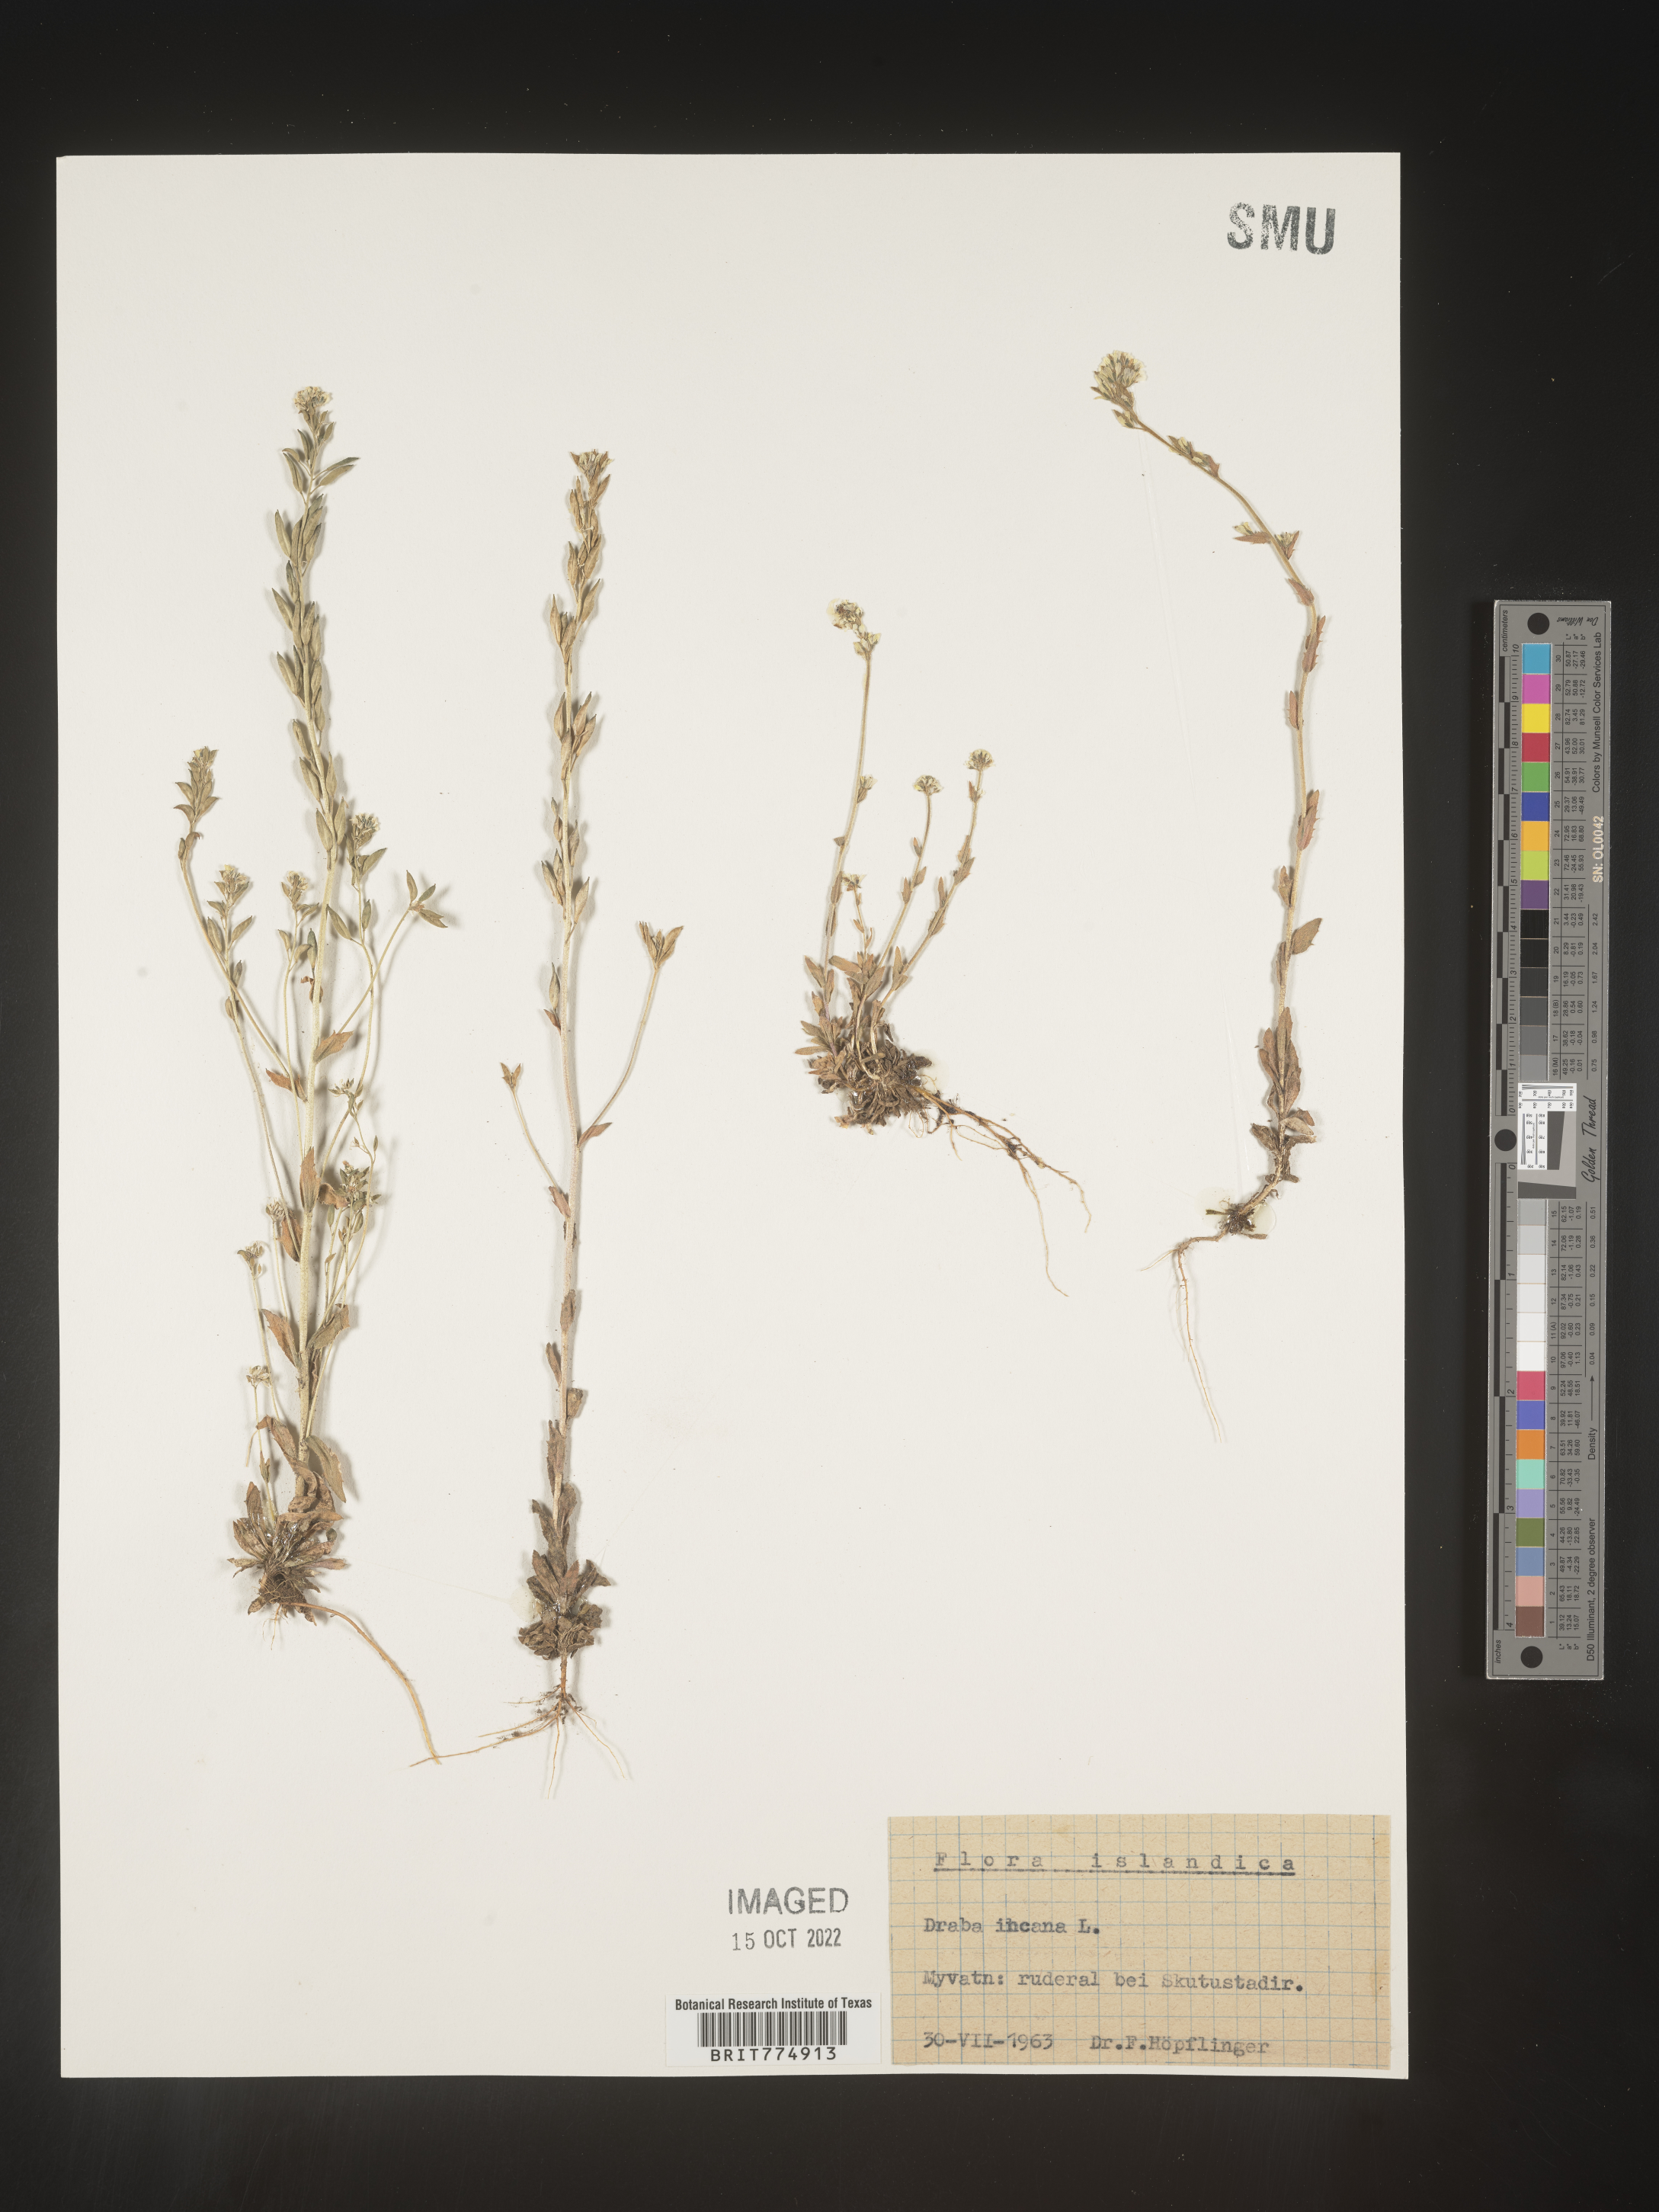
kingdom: Plantae
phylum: Tracheophyta
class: Magnoliopsida
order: Brassicales
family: Brassicaceae
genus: Draba
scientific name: Draba
